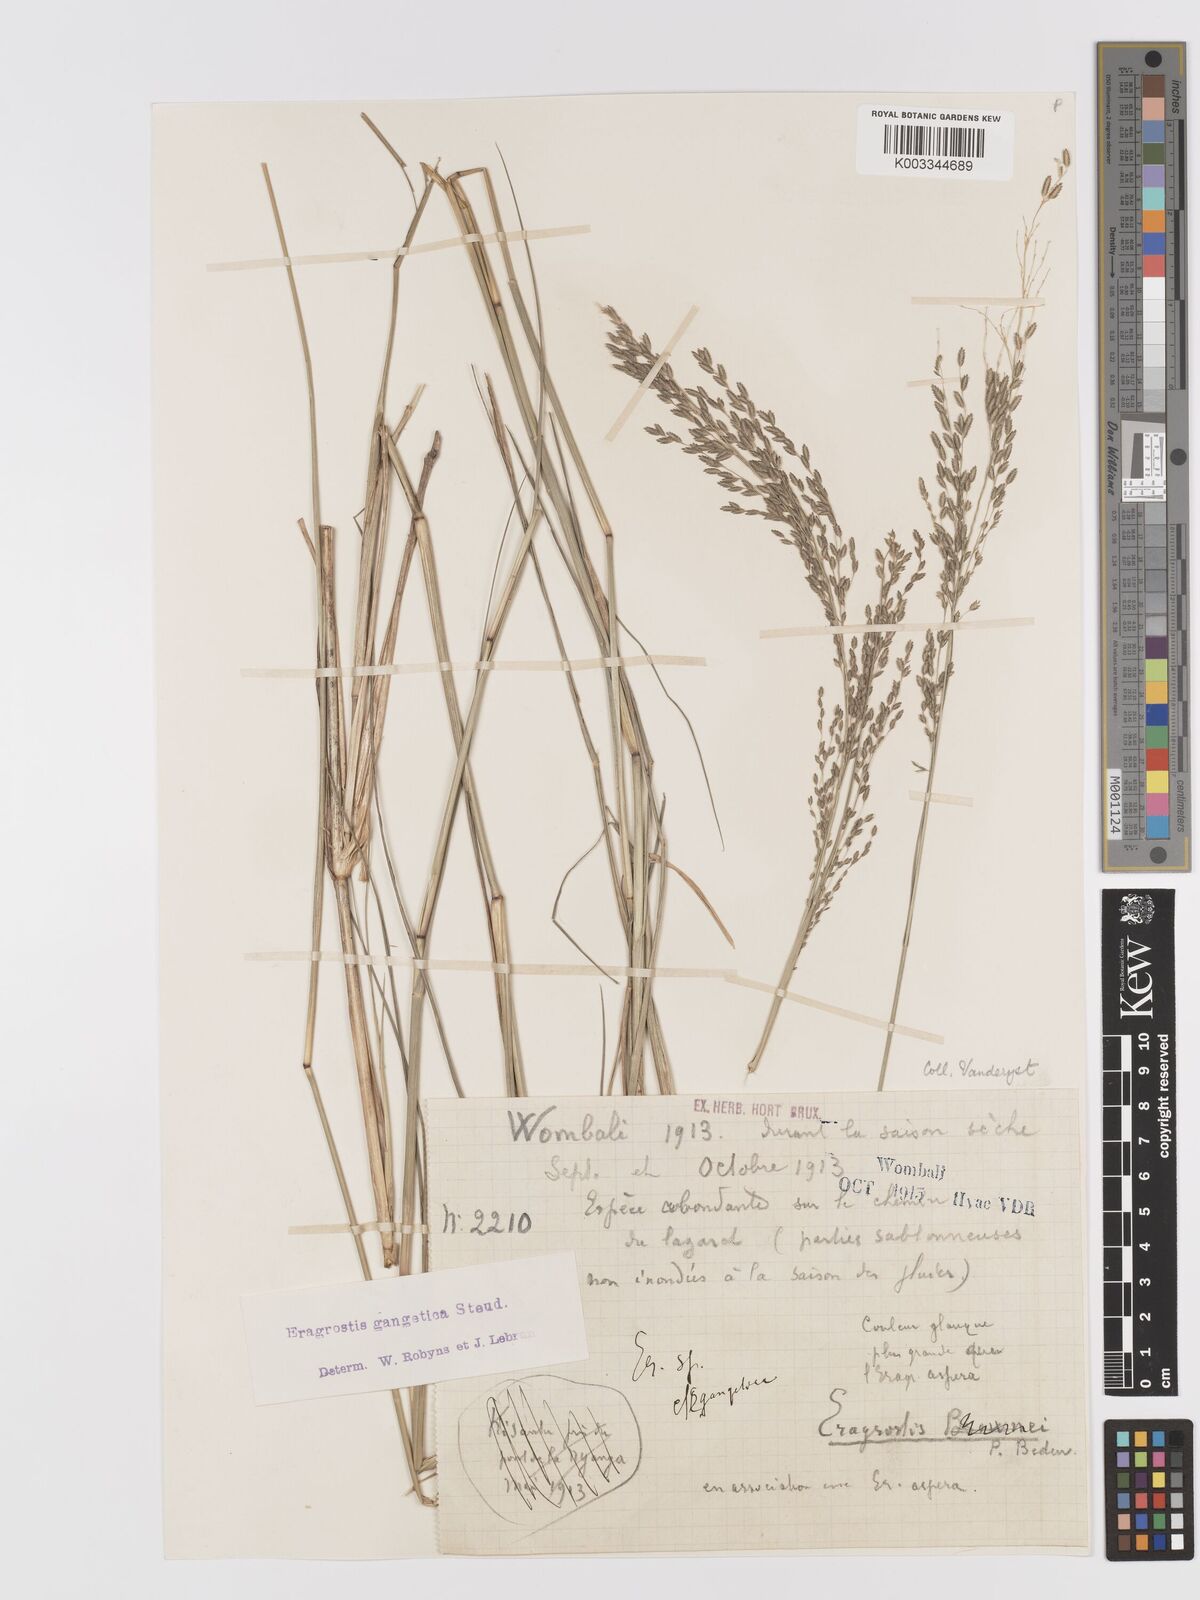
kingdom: Plantae
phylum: Tracheophyta
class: Liliopsida
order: Poales
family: Poaceae
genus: Eragrostis
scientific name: Eragrostis atrovirens
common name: Thalia lovegrass
